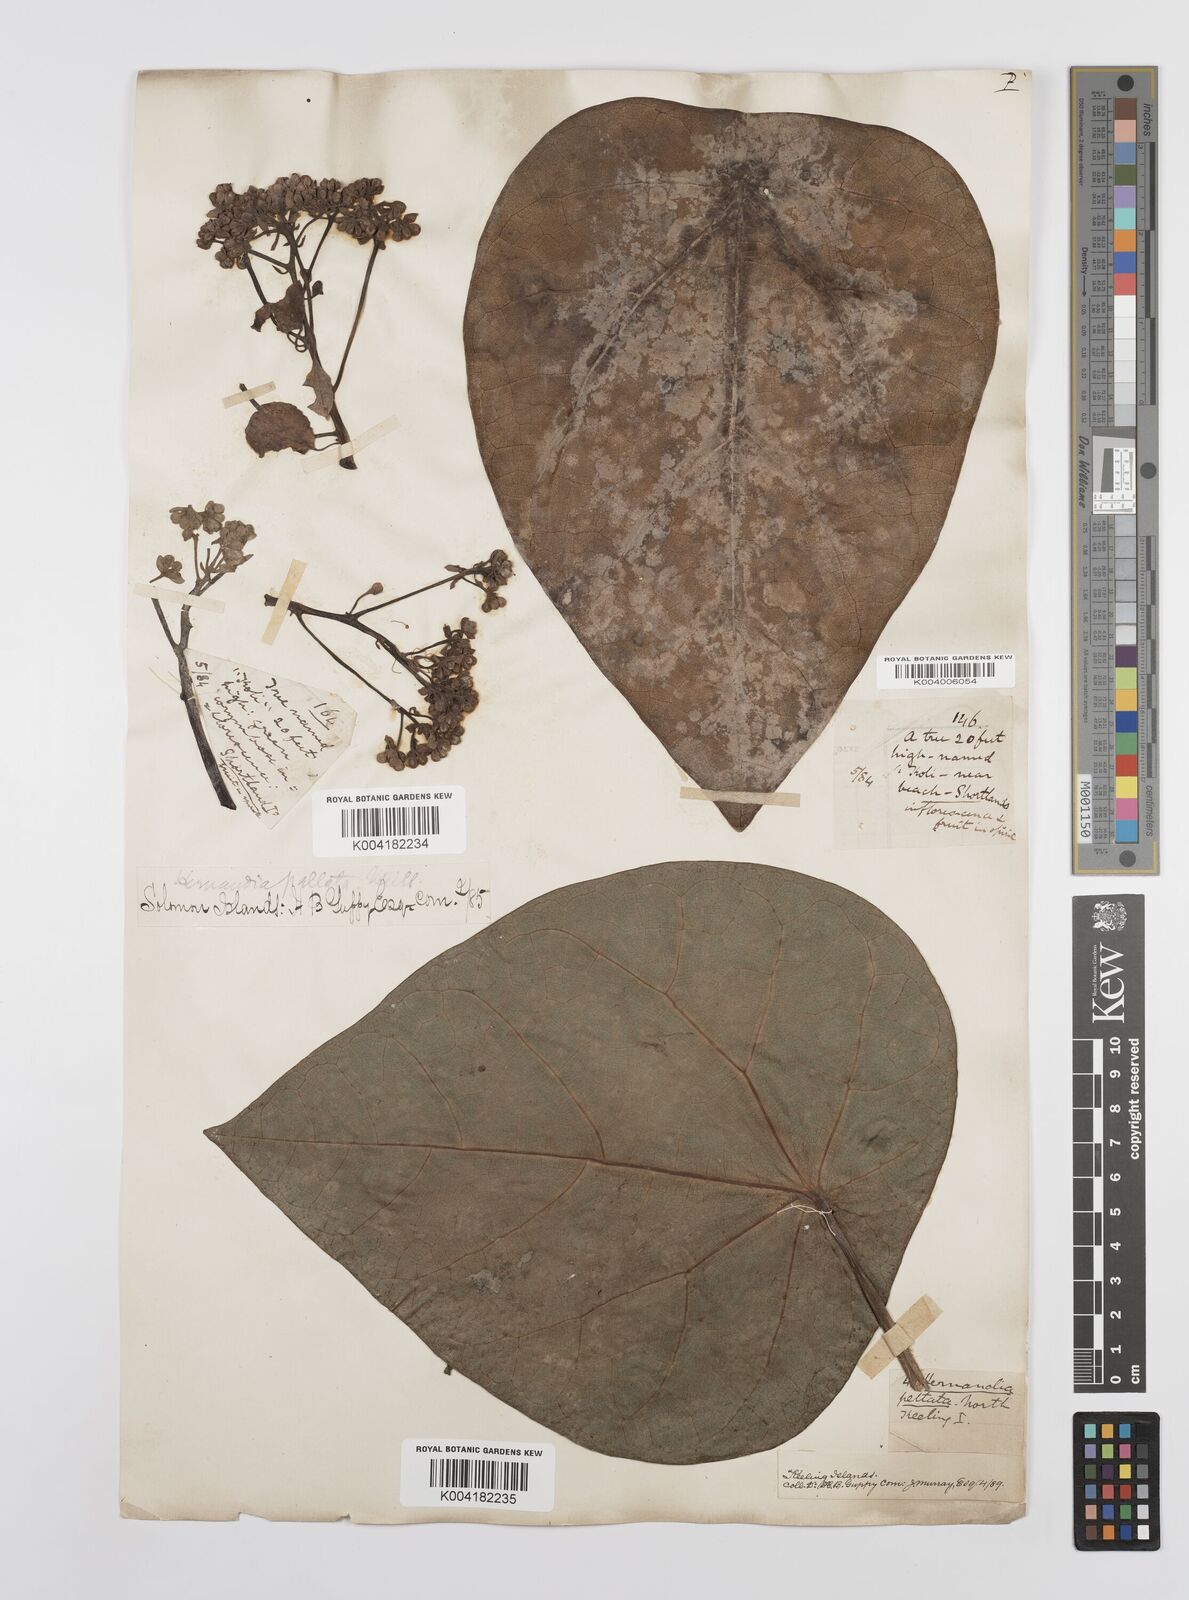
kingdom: Plantae
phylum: Tracheophyta
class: Magnoliopsida
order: Laurales
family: Hernandiaceae
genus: Hernandia
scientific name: Hernandia nymphaeifolia
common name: Sea hearse
